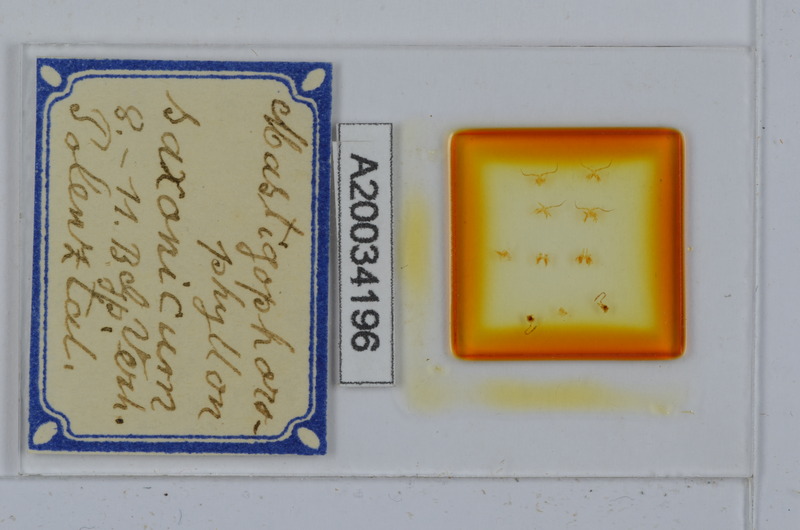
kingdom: Animalia
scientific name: Animalia
